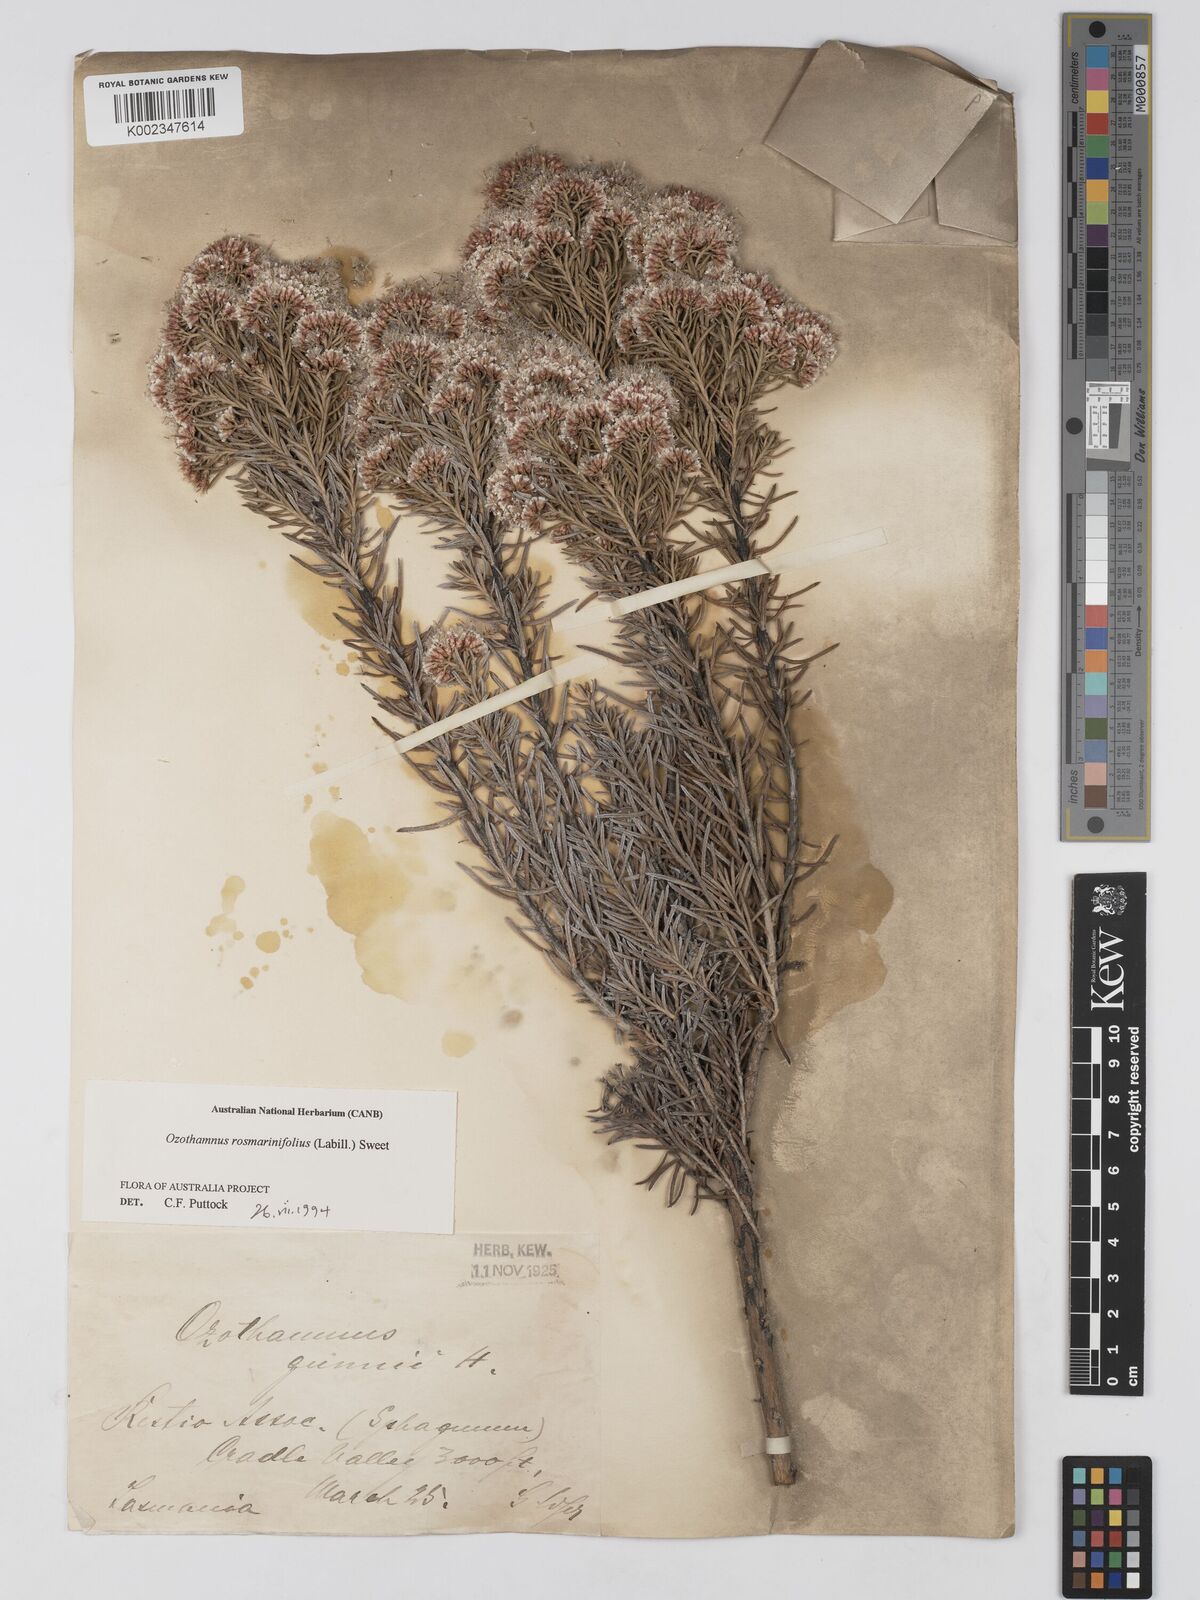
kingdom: Plantae
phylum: Tracheophyta
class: Magnoliopsida
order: Asterales
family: Asteraceae
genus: Ozothamnus
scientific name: Ozothamnus rosmarinifolius
